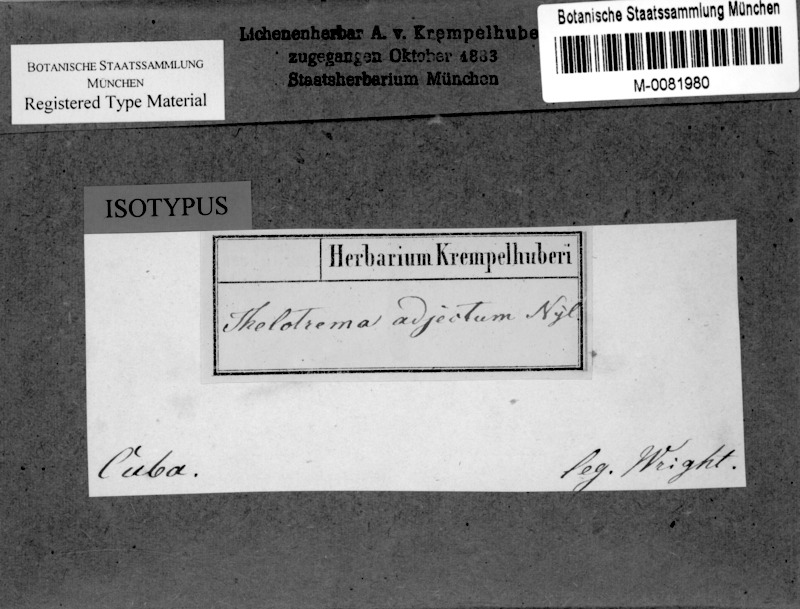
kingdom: Fungi
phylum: Ascomycota
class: Lecanoromycetes
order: Ostropales
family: Graphidaceae
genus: Thelotrema
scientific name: Thelotrema adjectum
